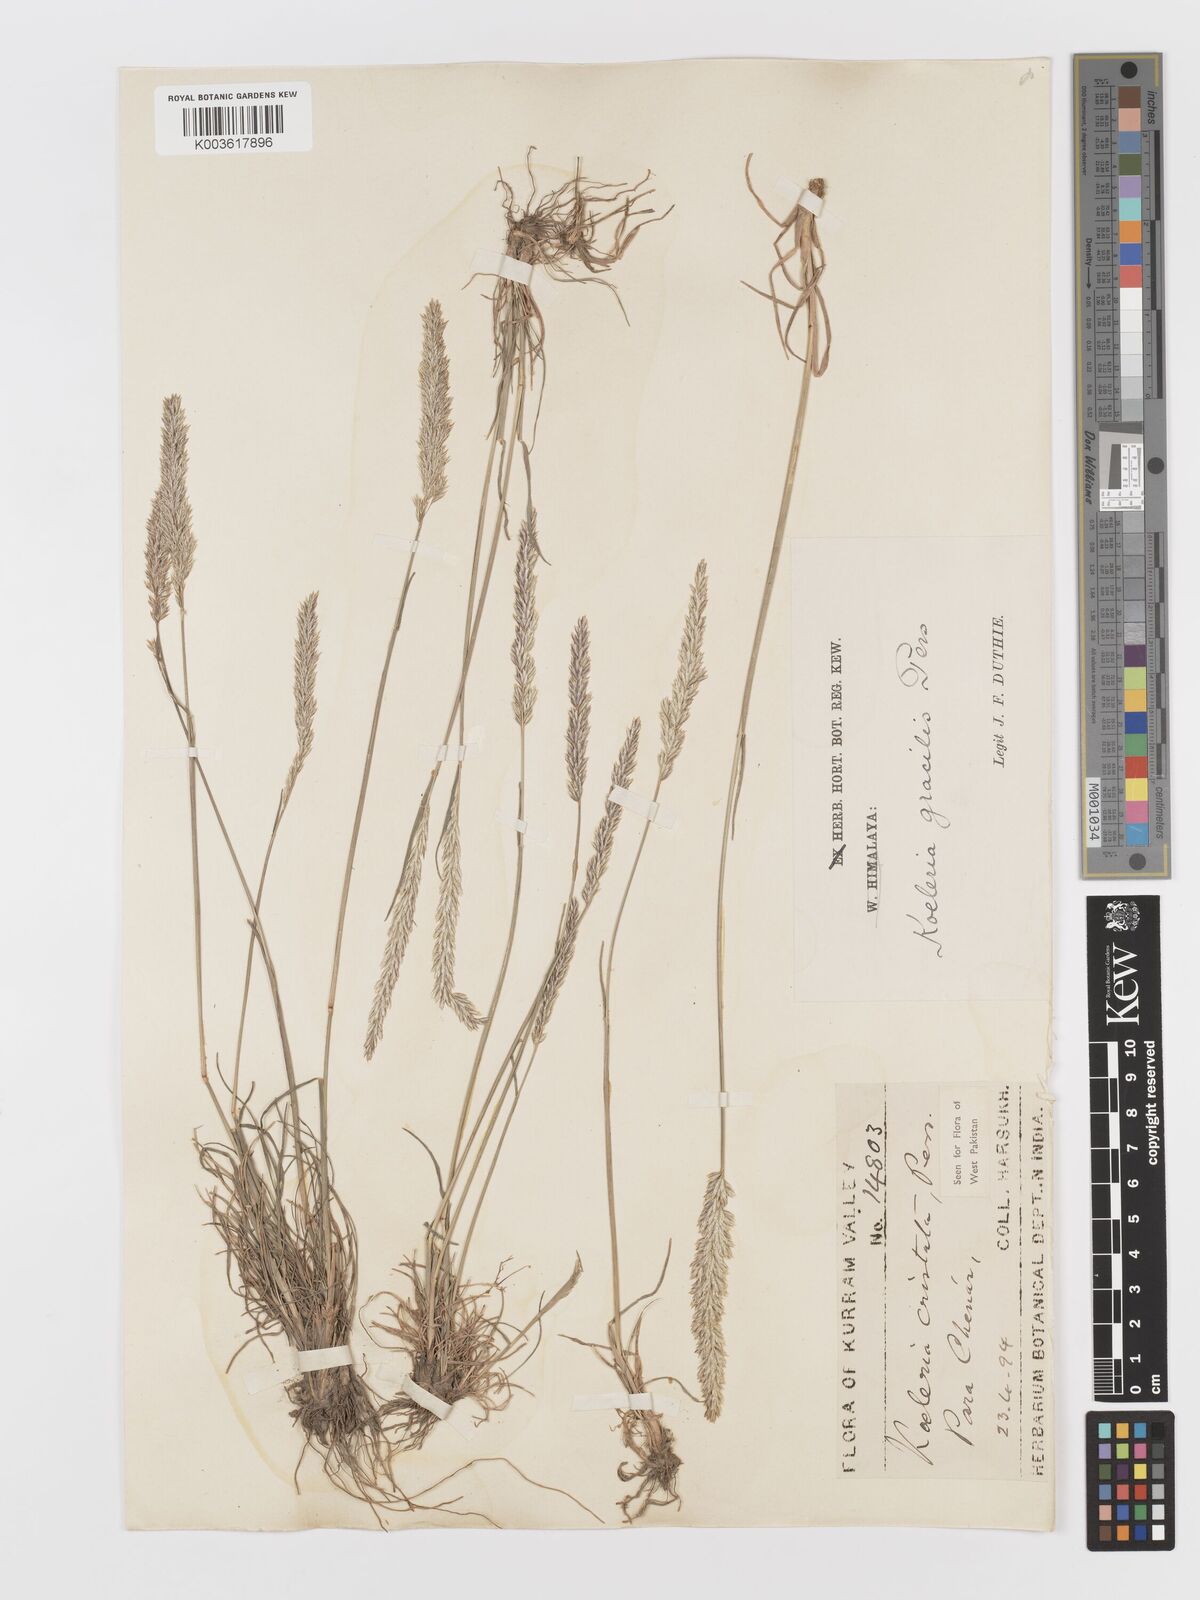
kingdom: Plantae
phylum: Tracheophyta
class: Liliopsida
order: Poales
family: Poaceae
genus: Koeleria
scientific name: Koeleria
